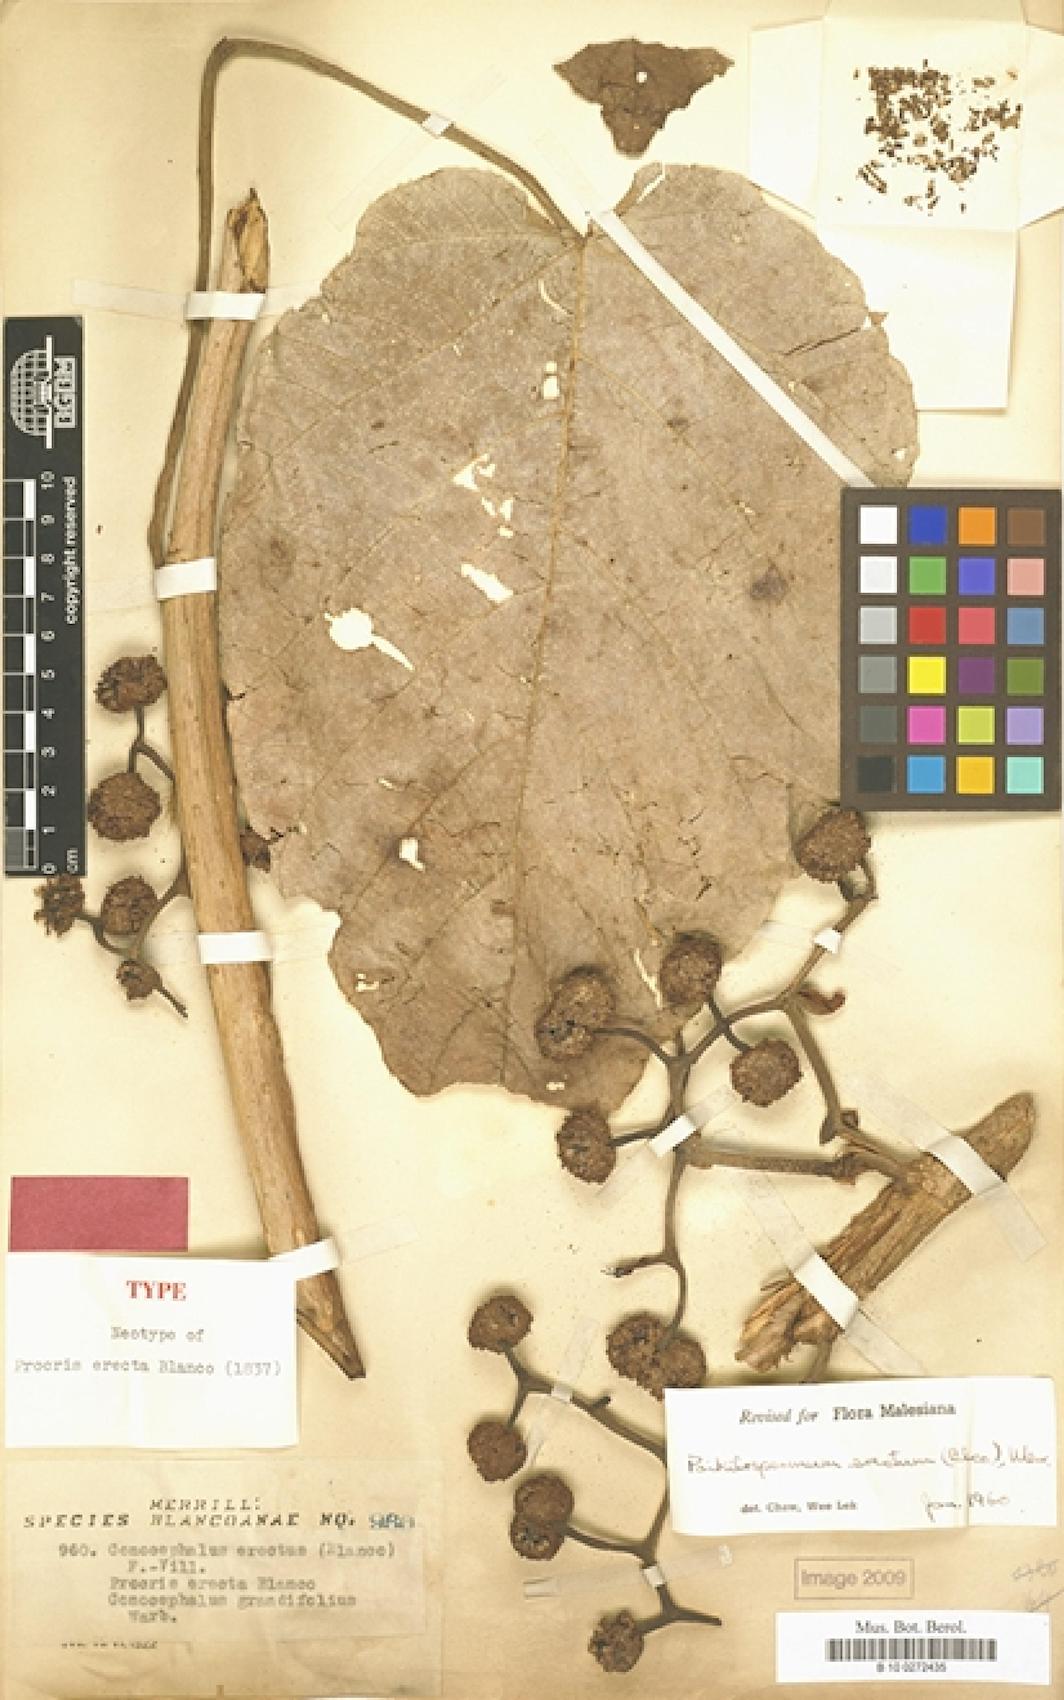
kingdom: Plantae
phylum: Tracheophyta
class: Magnoliopsida
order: Rosales
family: Urticaceae
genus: Poikilospermum
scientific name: Poikilospermum erectum
